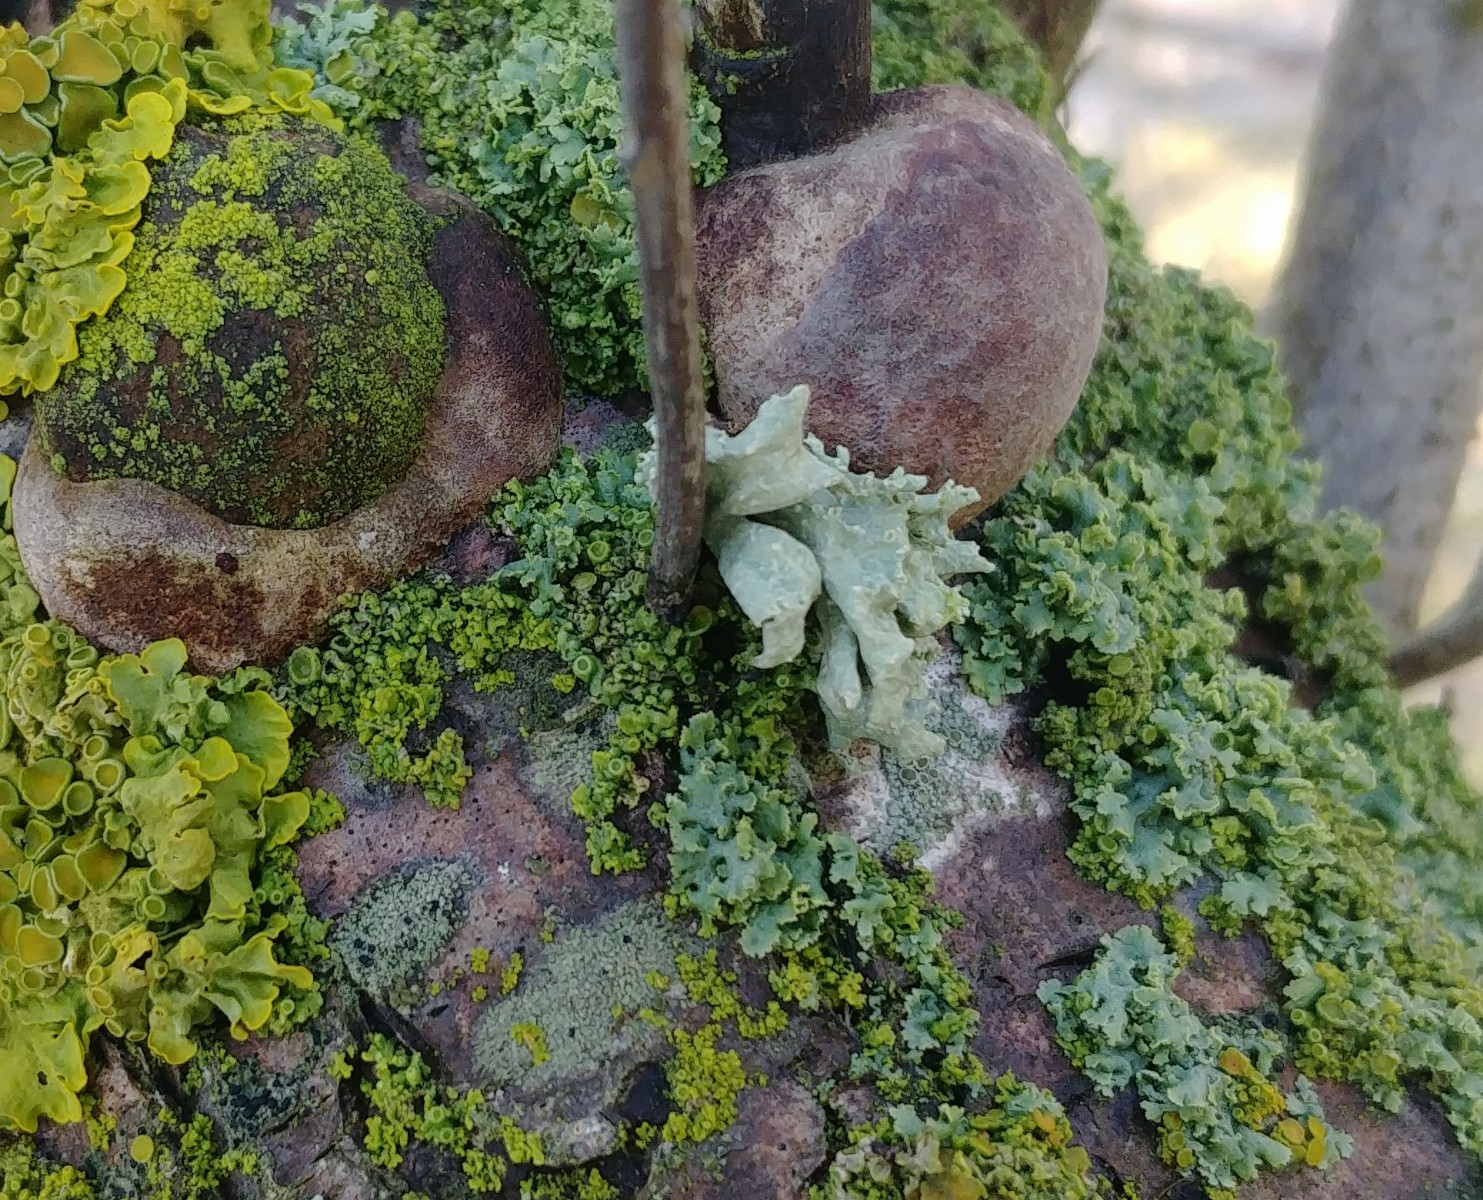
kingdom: Fungi
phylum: Basidiomycota
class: Agaricomycetes
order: Hymenochaetales
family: Hymenochaetaceae
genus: Fomitiporia
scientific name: Fomitiporia hippophaeicola
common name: havtorn-ildporesvamp
